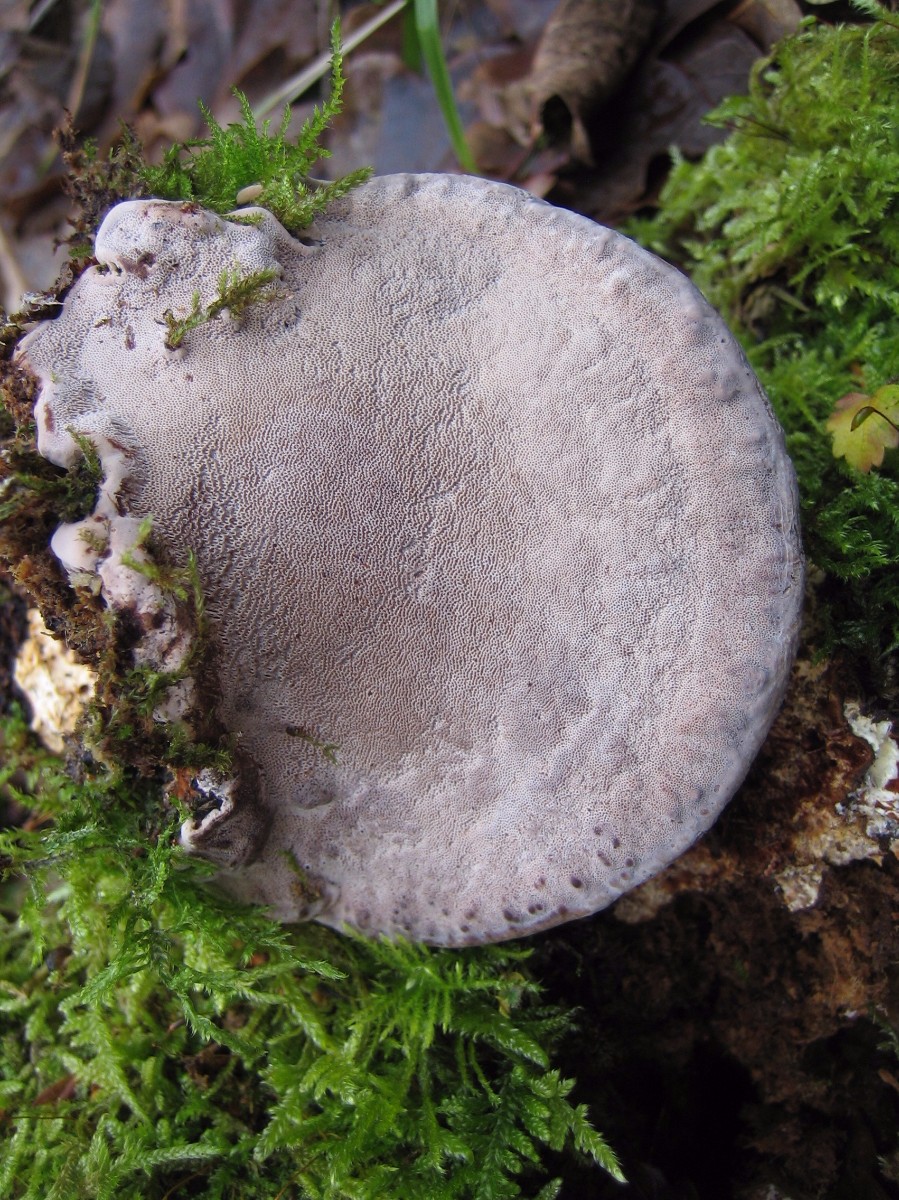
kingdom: Fungi
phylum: Basidiomycota
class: Agaricomycetes
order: Polyporales
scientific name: Polyporales
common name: poresvampordenen
